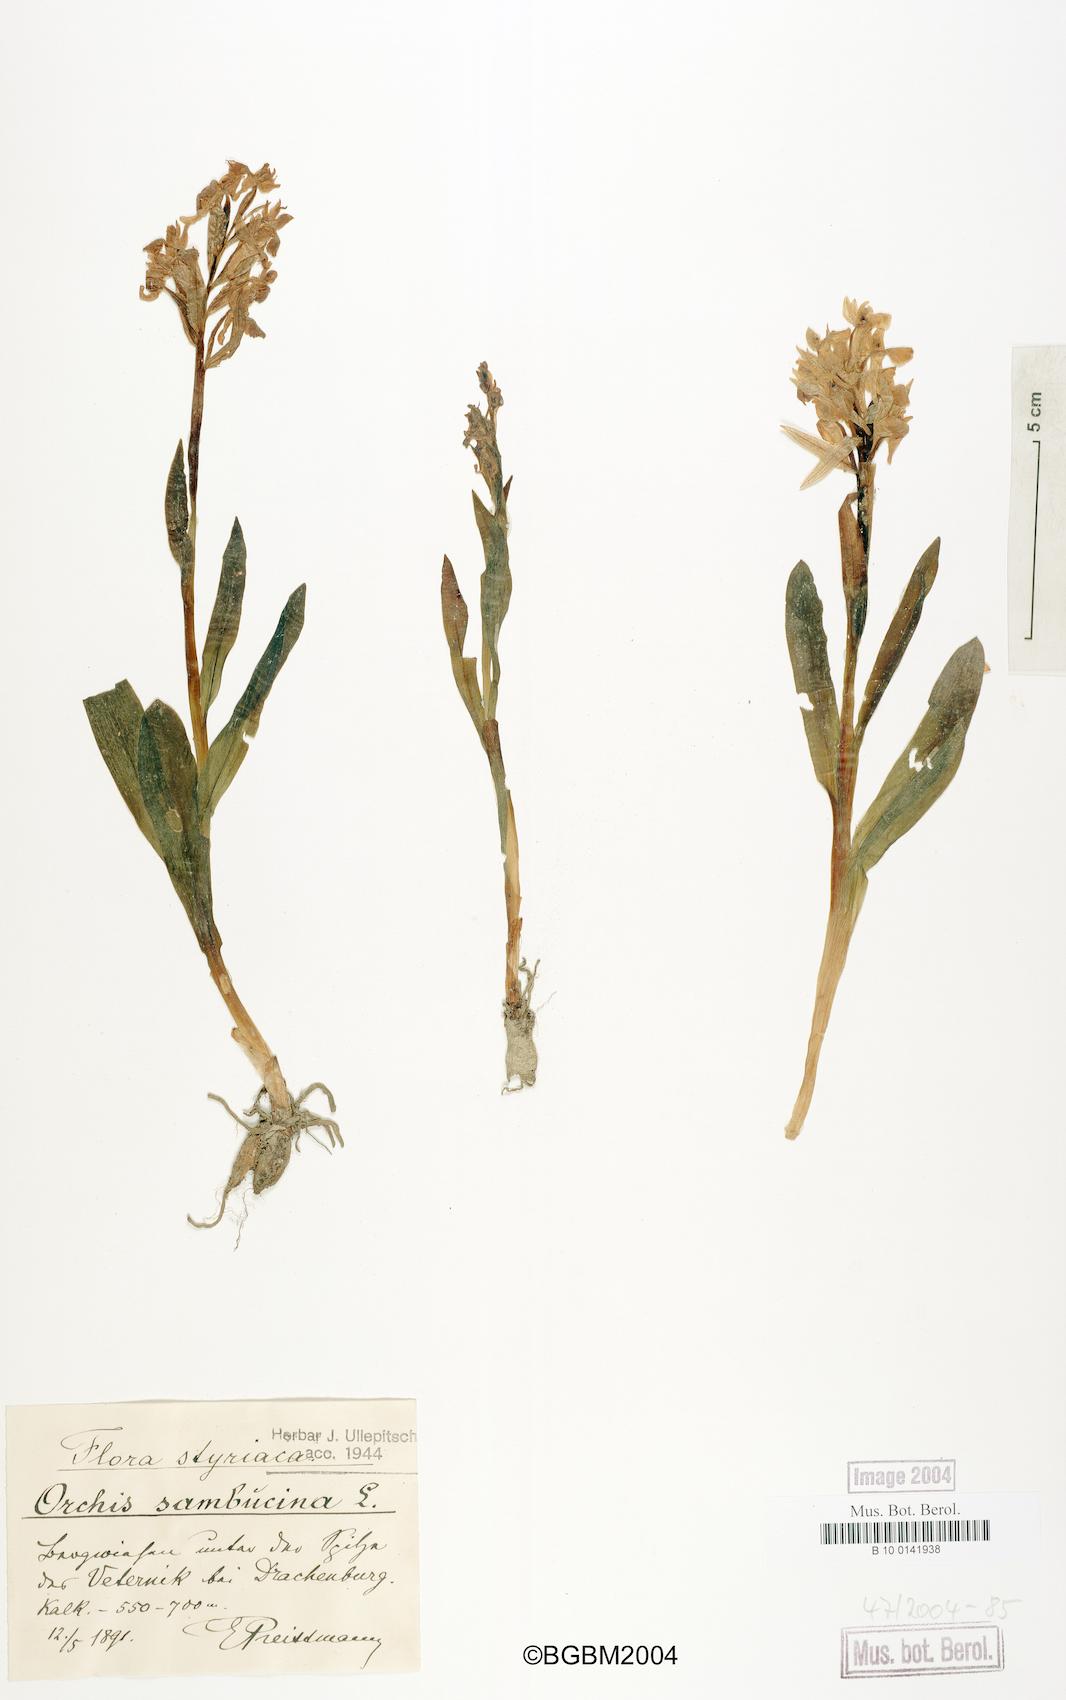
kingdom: Plantae
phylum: Tracheophyta
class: Liliopsida
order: Asparagales
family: Orchidaceae
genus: Dactylorhiza
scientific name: Dactylorhiza sambucina
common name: Elder-flowered orchid
